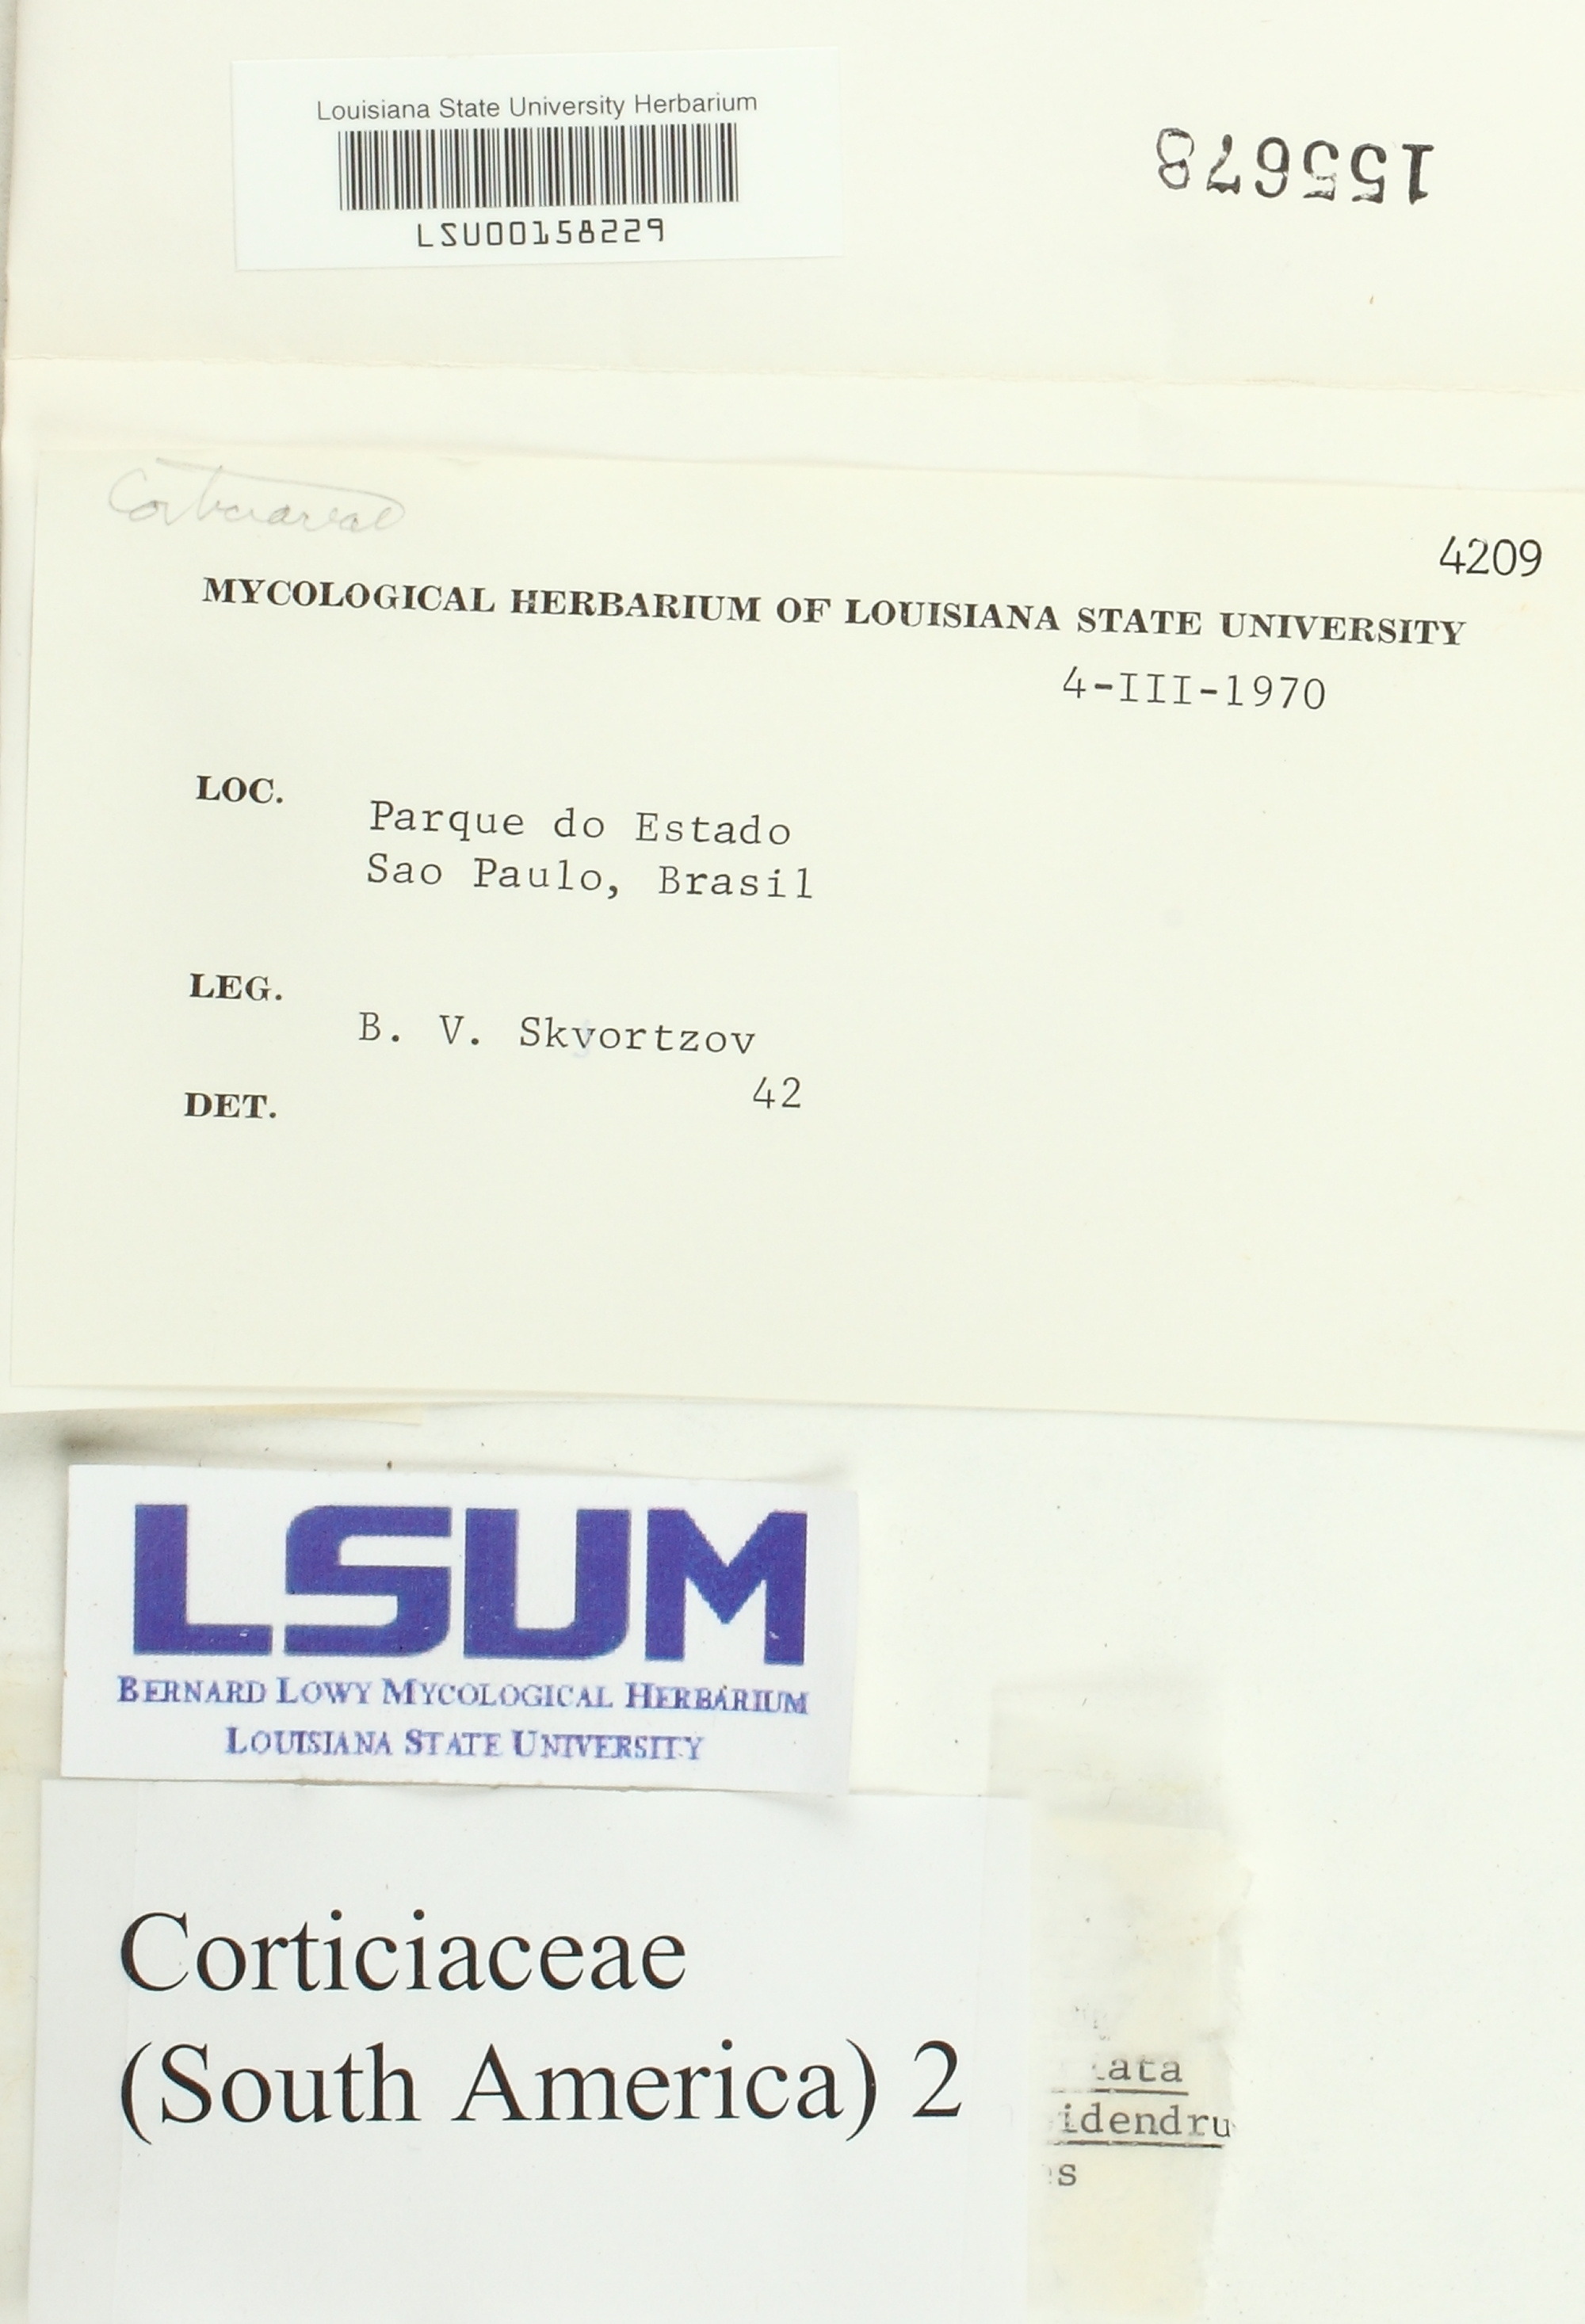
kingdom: Fungi
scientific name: Fungi
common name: Fungi
